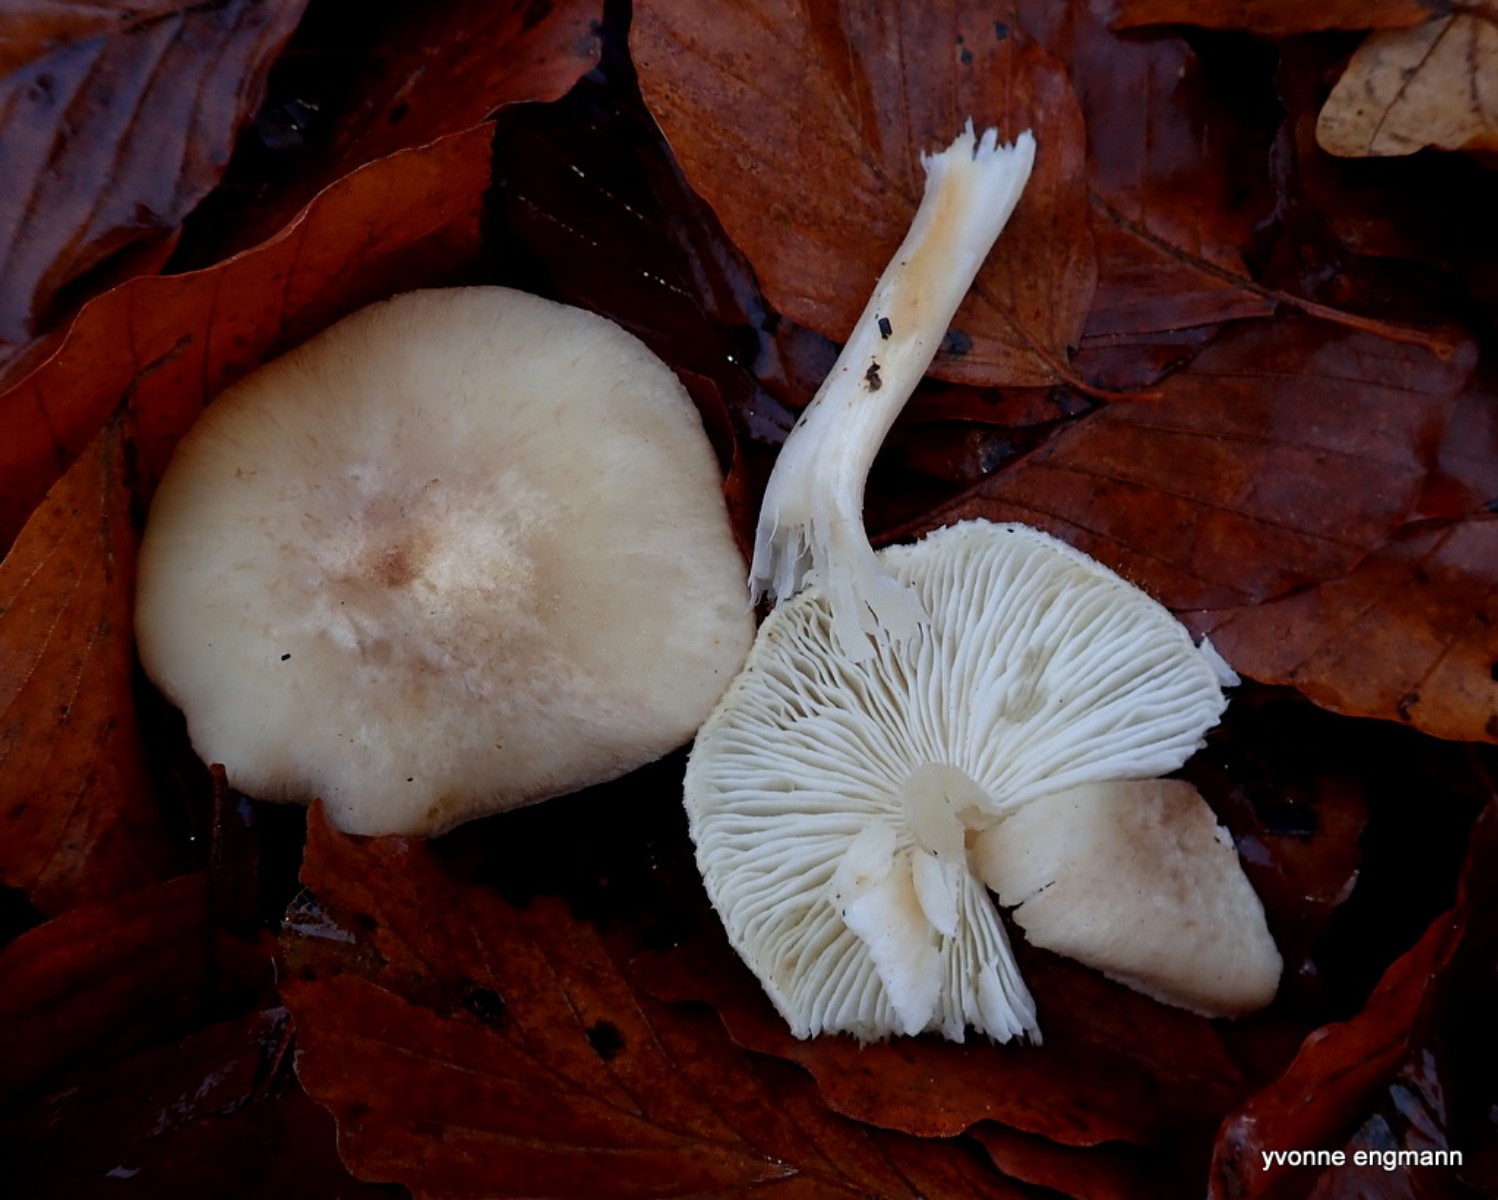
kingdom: Fungi
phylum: Basidiomycota
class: Agaricomycetes
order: Agaricales
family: Tricholomataceae
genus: Tricholoma
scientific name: Tricholoma scalpturatum
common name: gulplettet ridderhat
